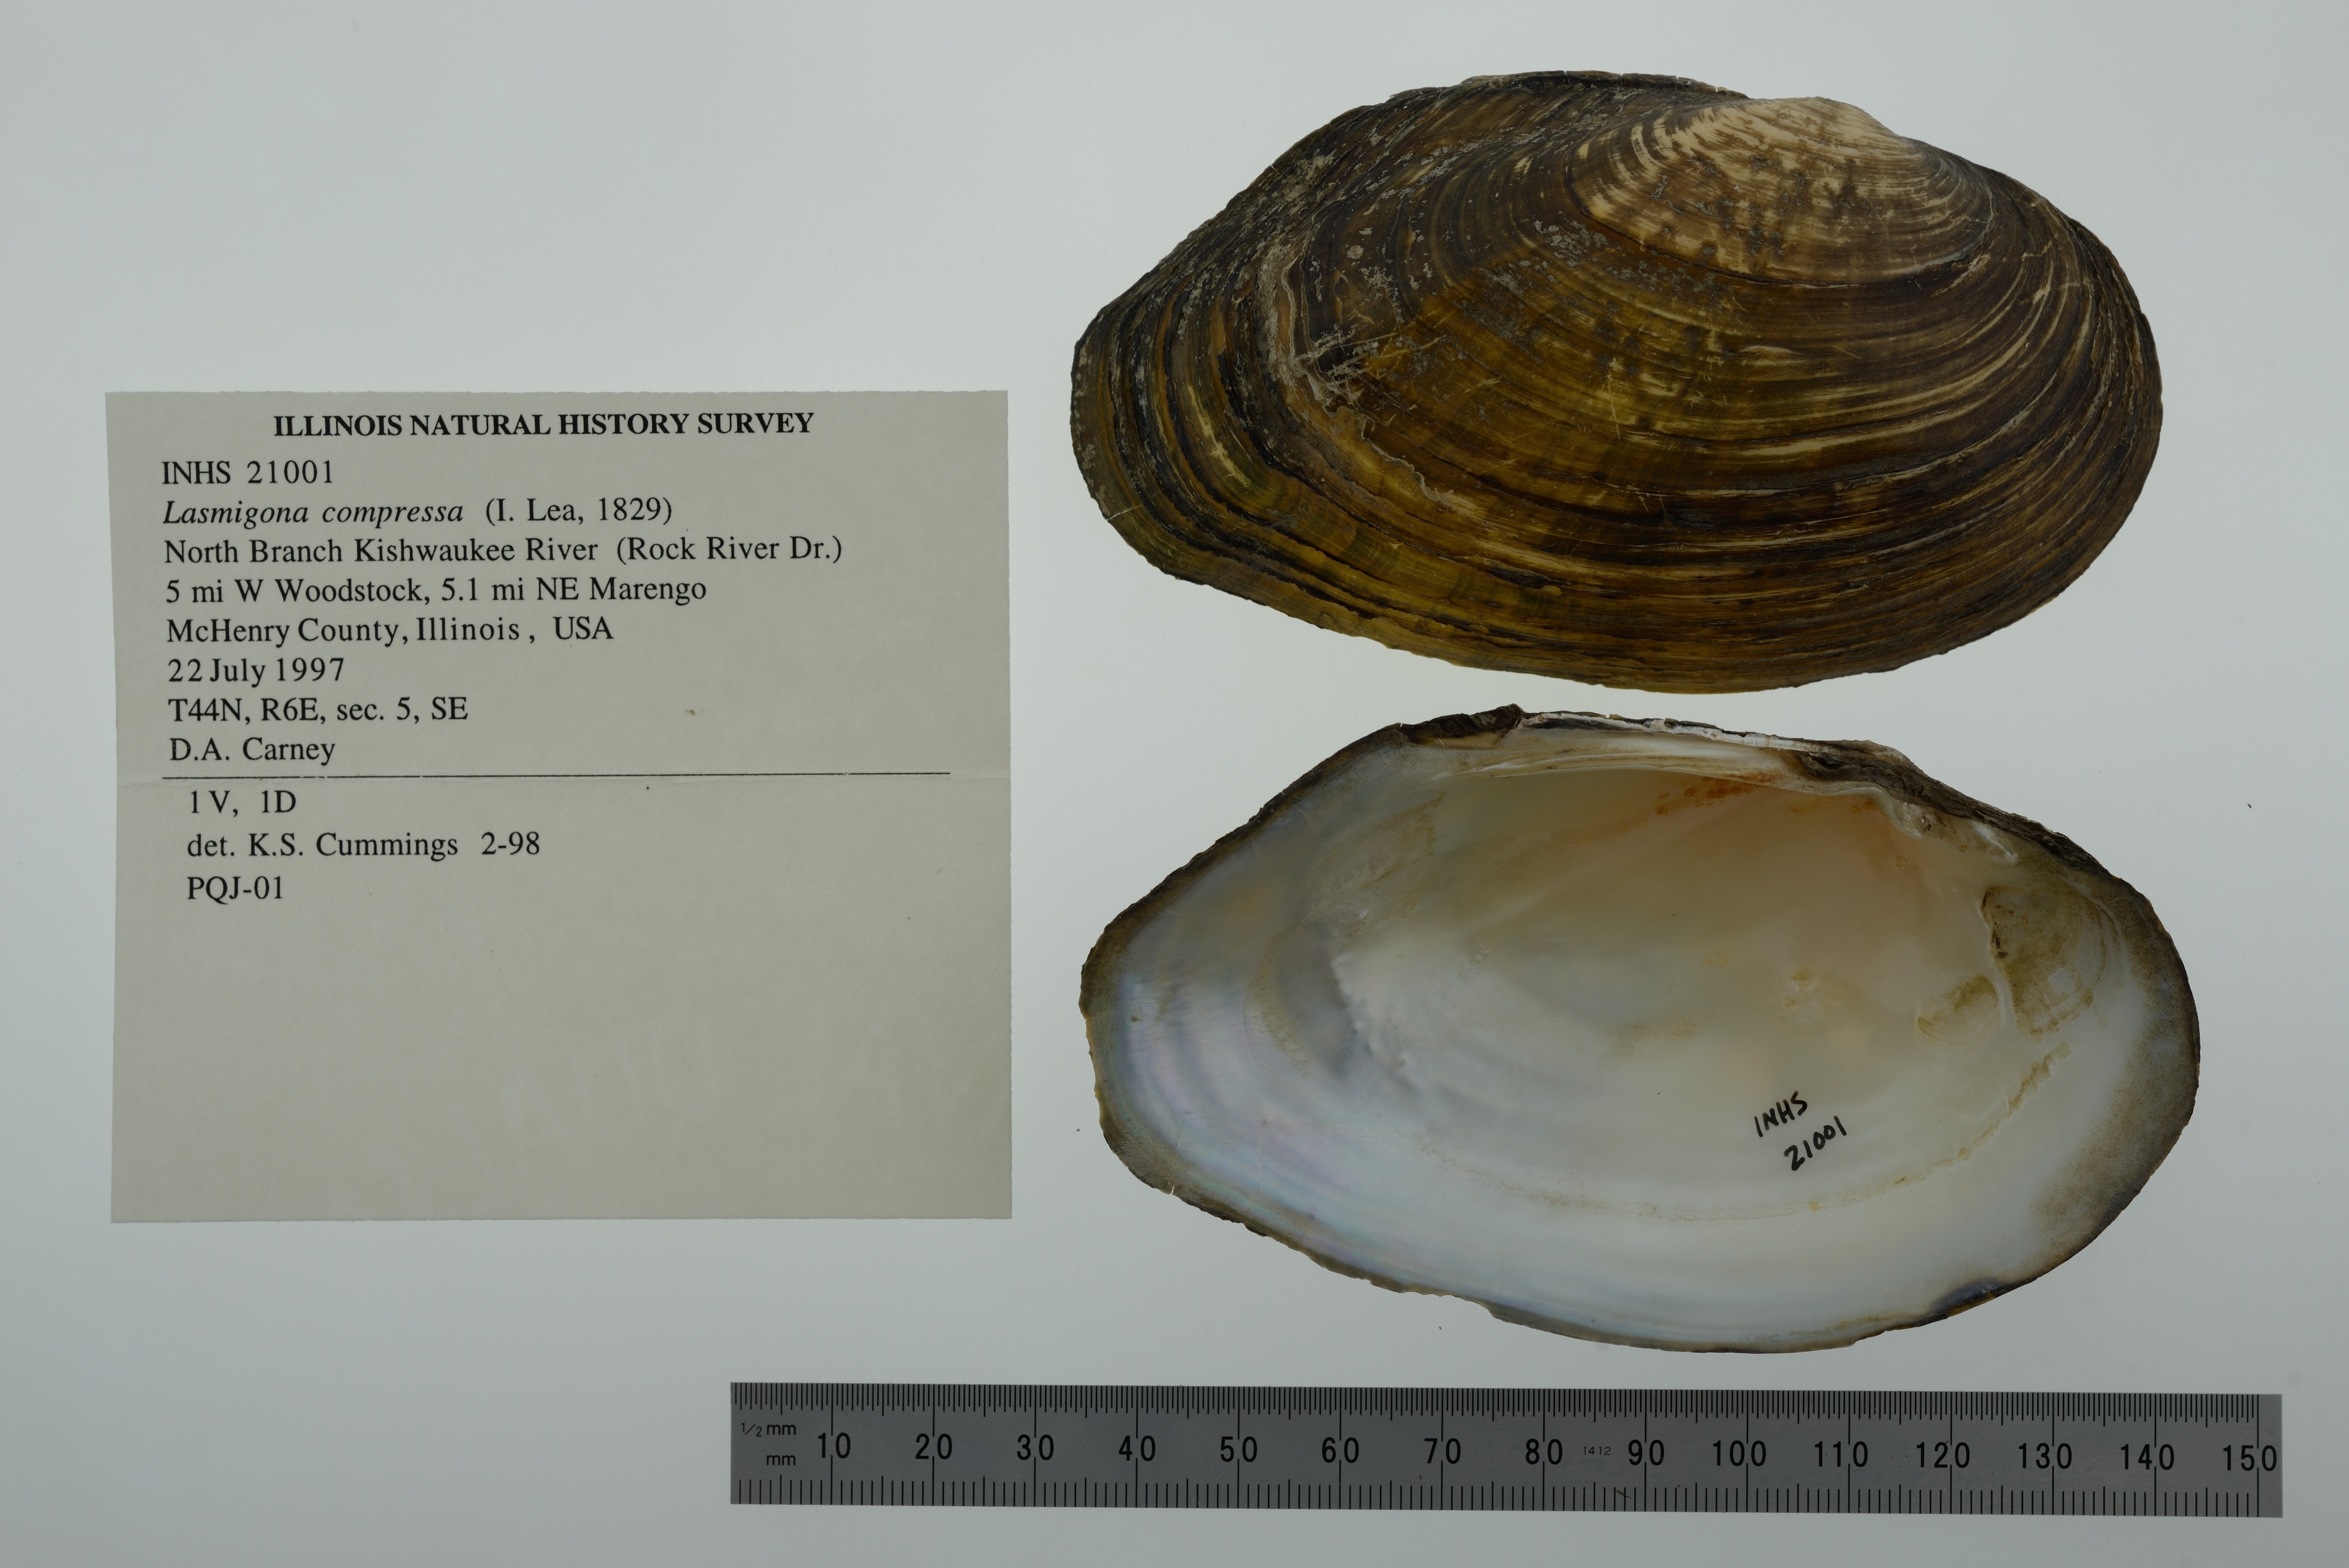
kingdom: Animalia
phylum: Mollusca
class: Bivalvia
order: Unionida
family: Unionidae
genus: Lasmigona
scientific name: Lasmigona compressa
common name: Creek heelsplitter
